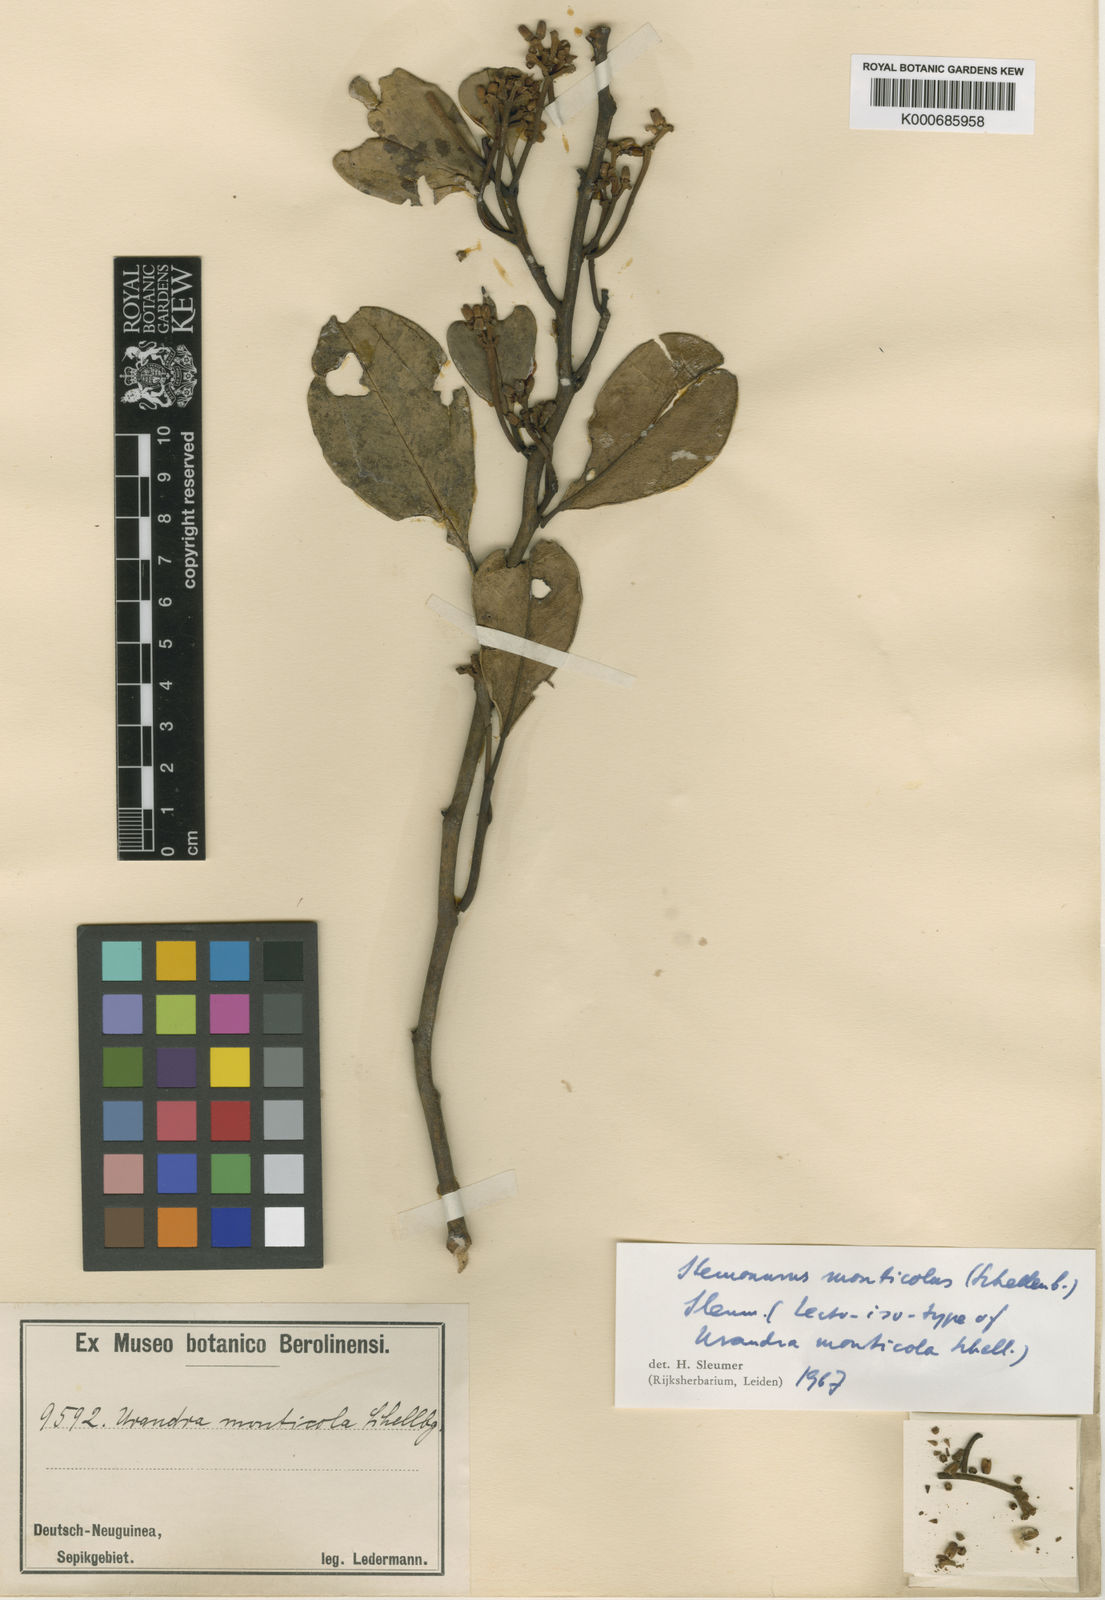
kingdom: Plantae
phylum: Tracheophyta
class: Magnoliopsida
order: Cardiopteridales
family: Stemonuraceae
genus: Stemonurus
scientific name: Stemonurus monticola
